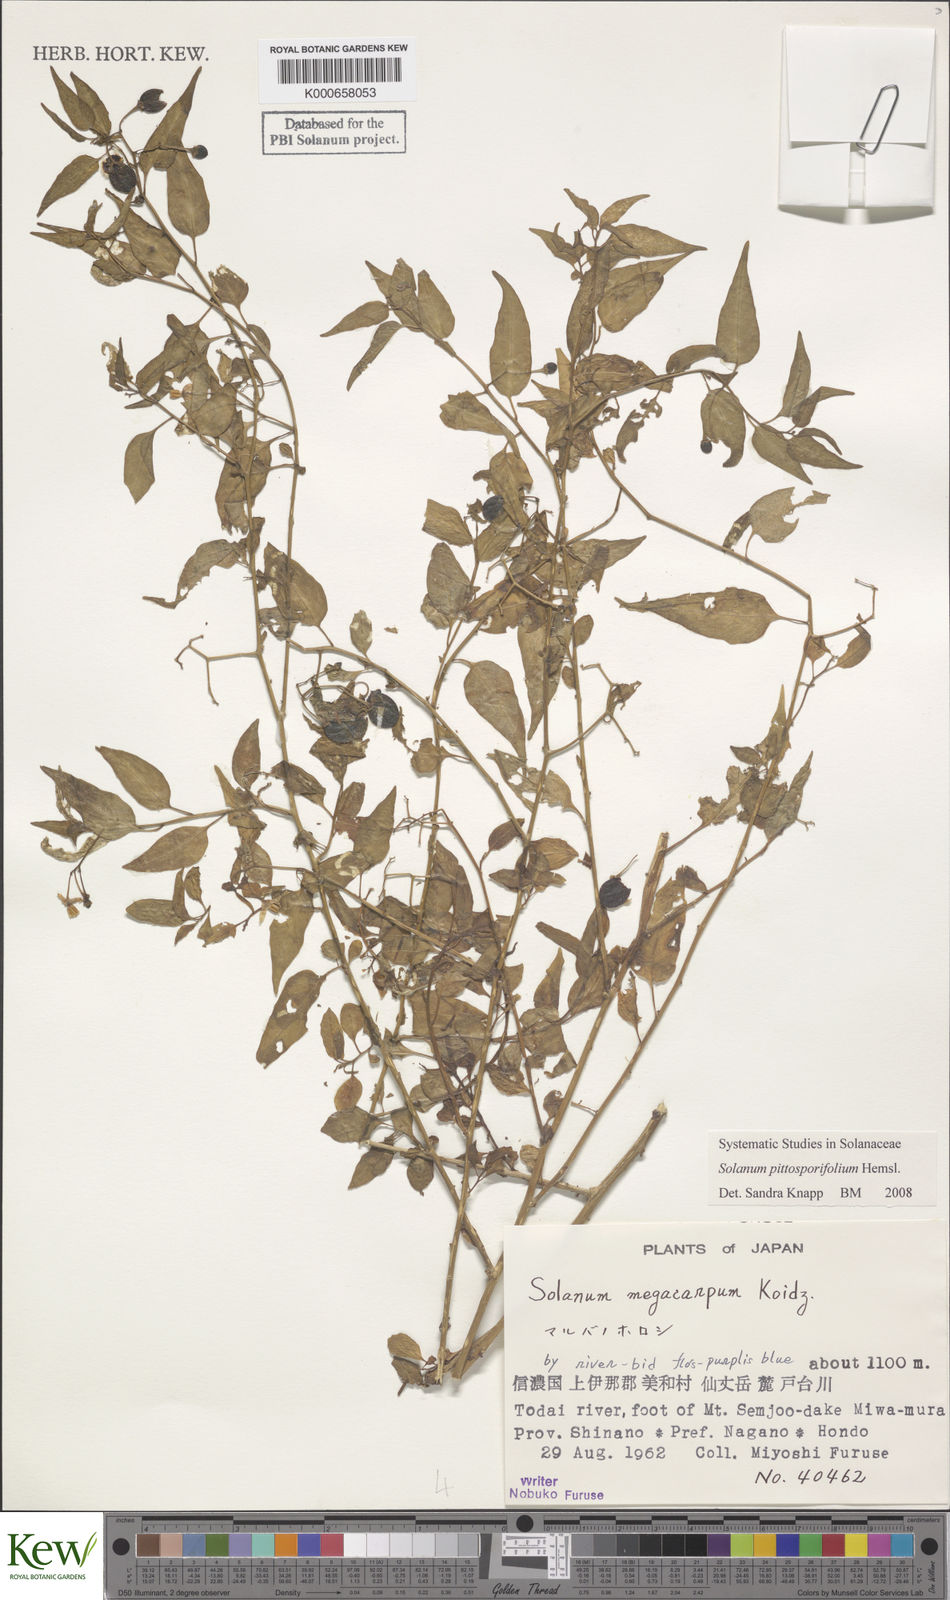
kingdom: Plantae
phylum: Tracheophyta
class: Magnoliopsida
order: Solanales
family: Solanaceae
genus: Solanum
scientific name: Solanum pittosporifolium
